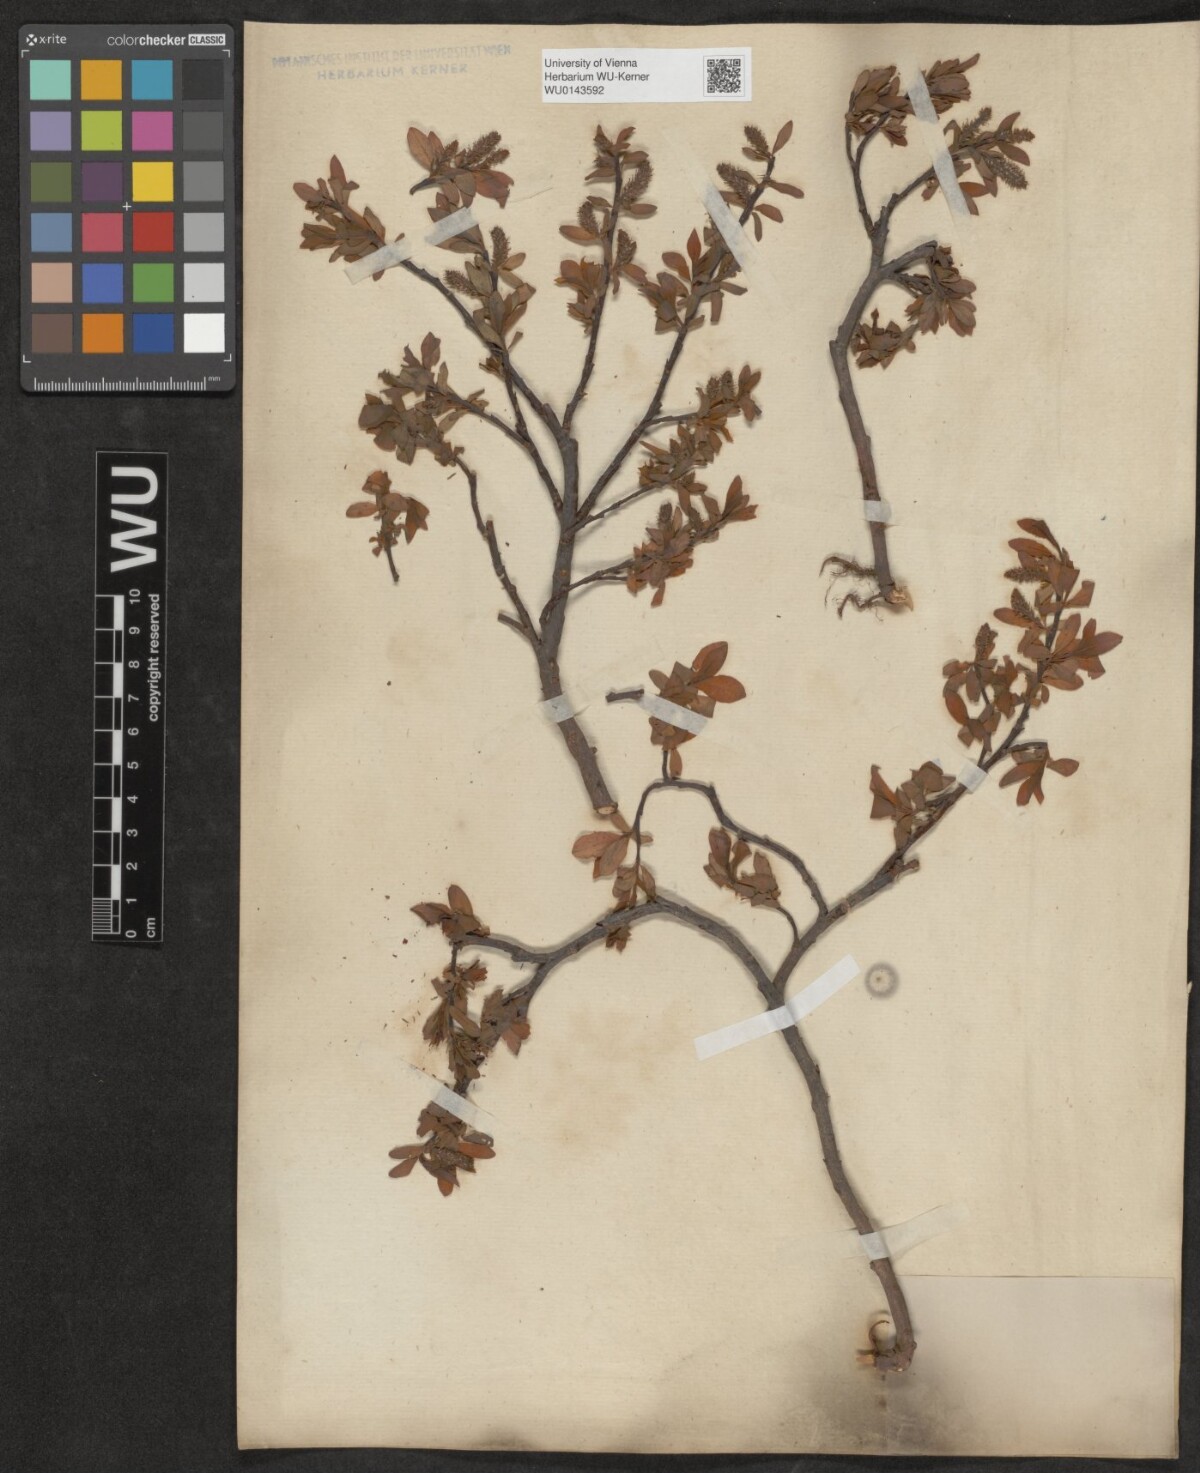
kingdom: Plantae
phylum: Tracheophyta
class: Magnoliopsida
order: Malpighiales
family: Salicaceae
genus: Salix
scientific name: Salix waldsteiniana
